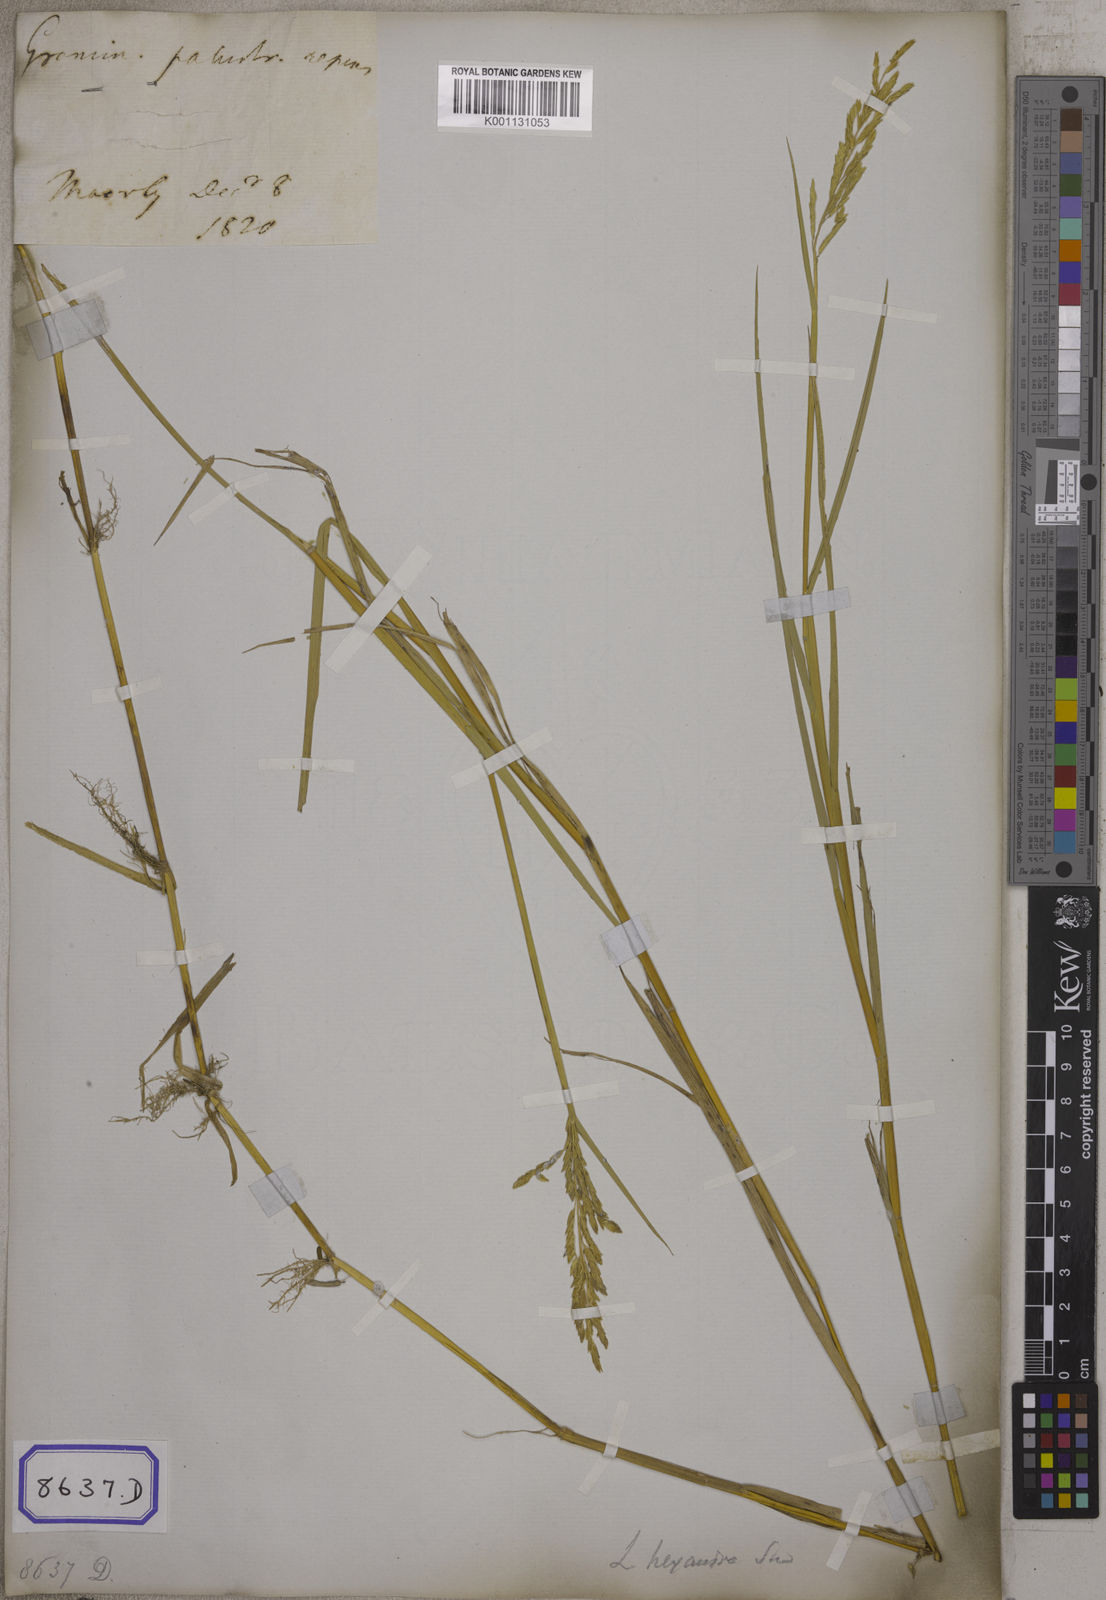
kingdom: Plantae
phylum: Tracheophyta
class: Liliopsida
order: Poales
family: Poaceae
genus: Leersia
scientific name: Leersia oryzoides
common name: Cut-grass
